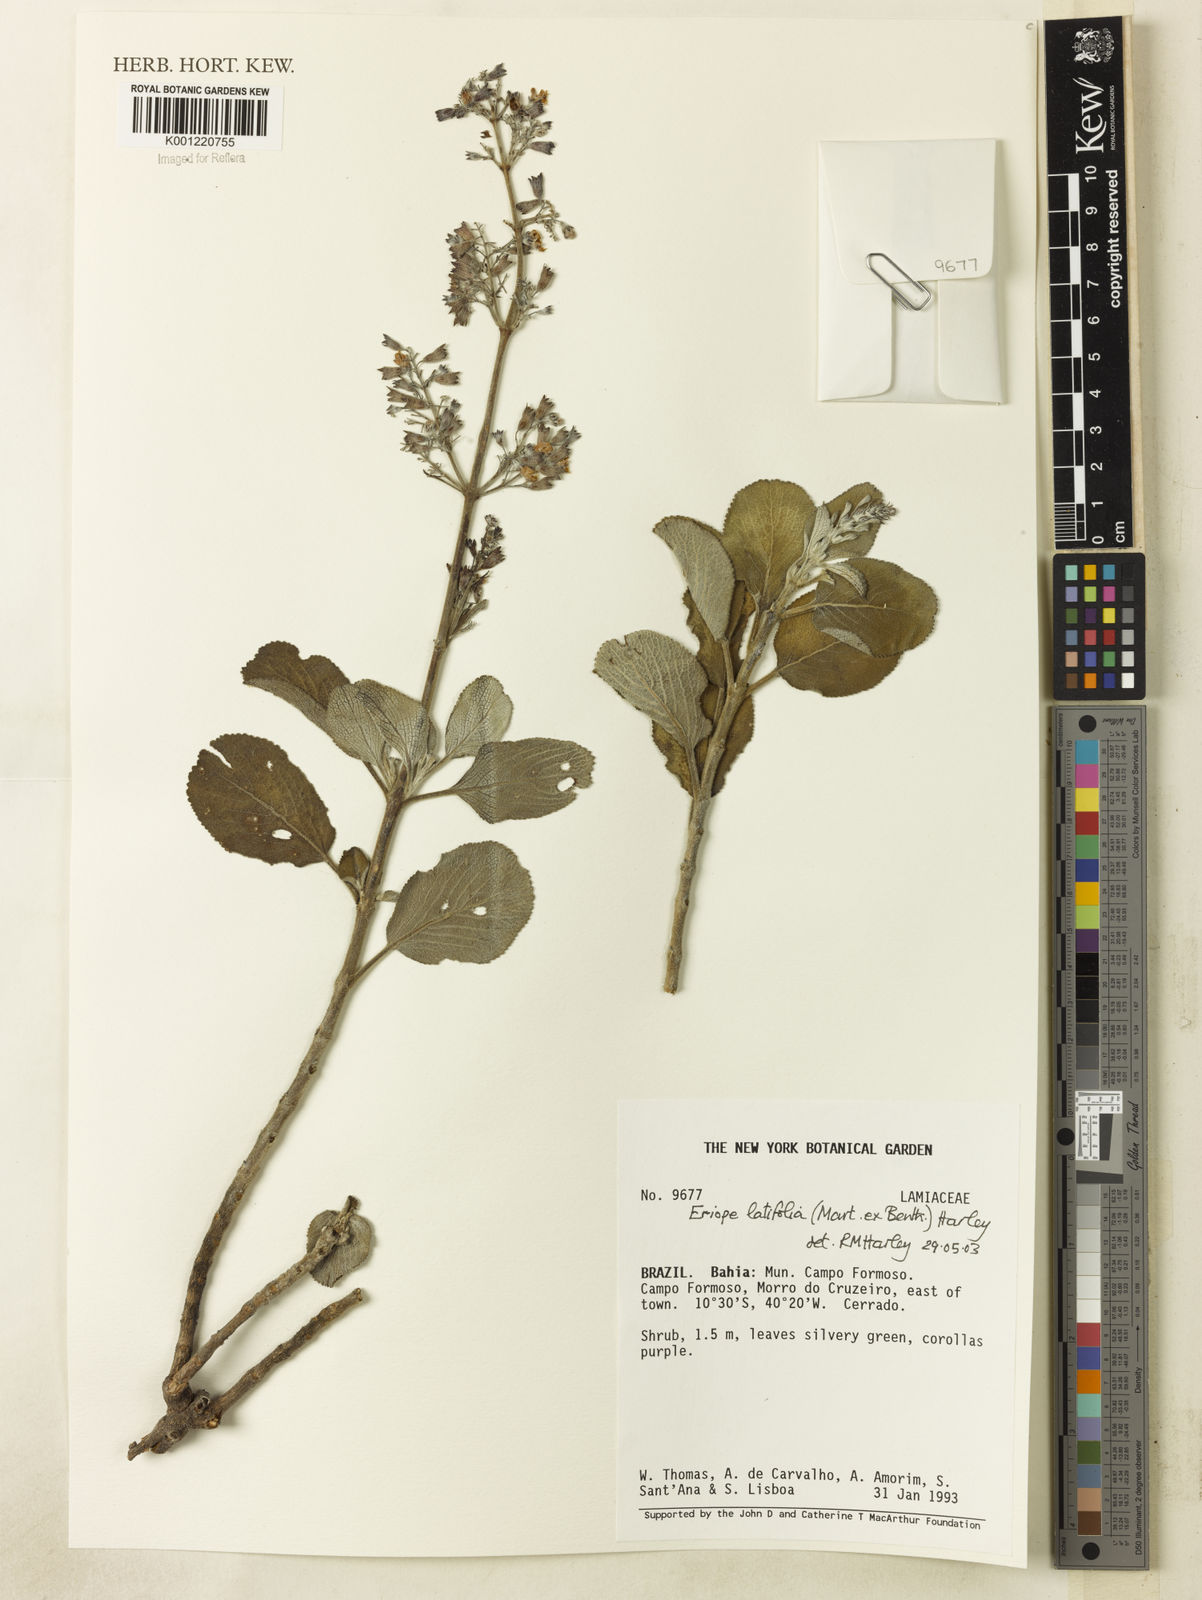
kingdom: Plantae
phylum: Tracheophyta
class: Magnoliopsida
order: Lamiales
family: Lamiaceae
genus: Eriope
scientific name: Eriope latifolia
